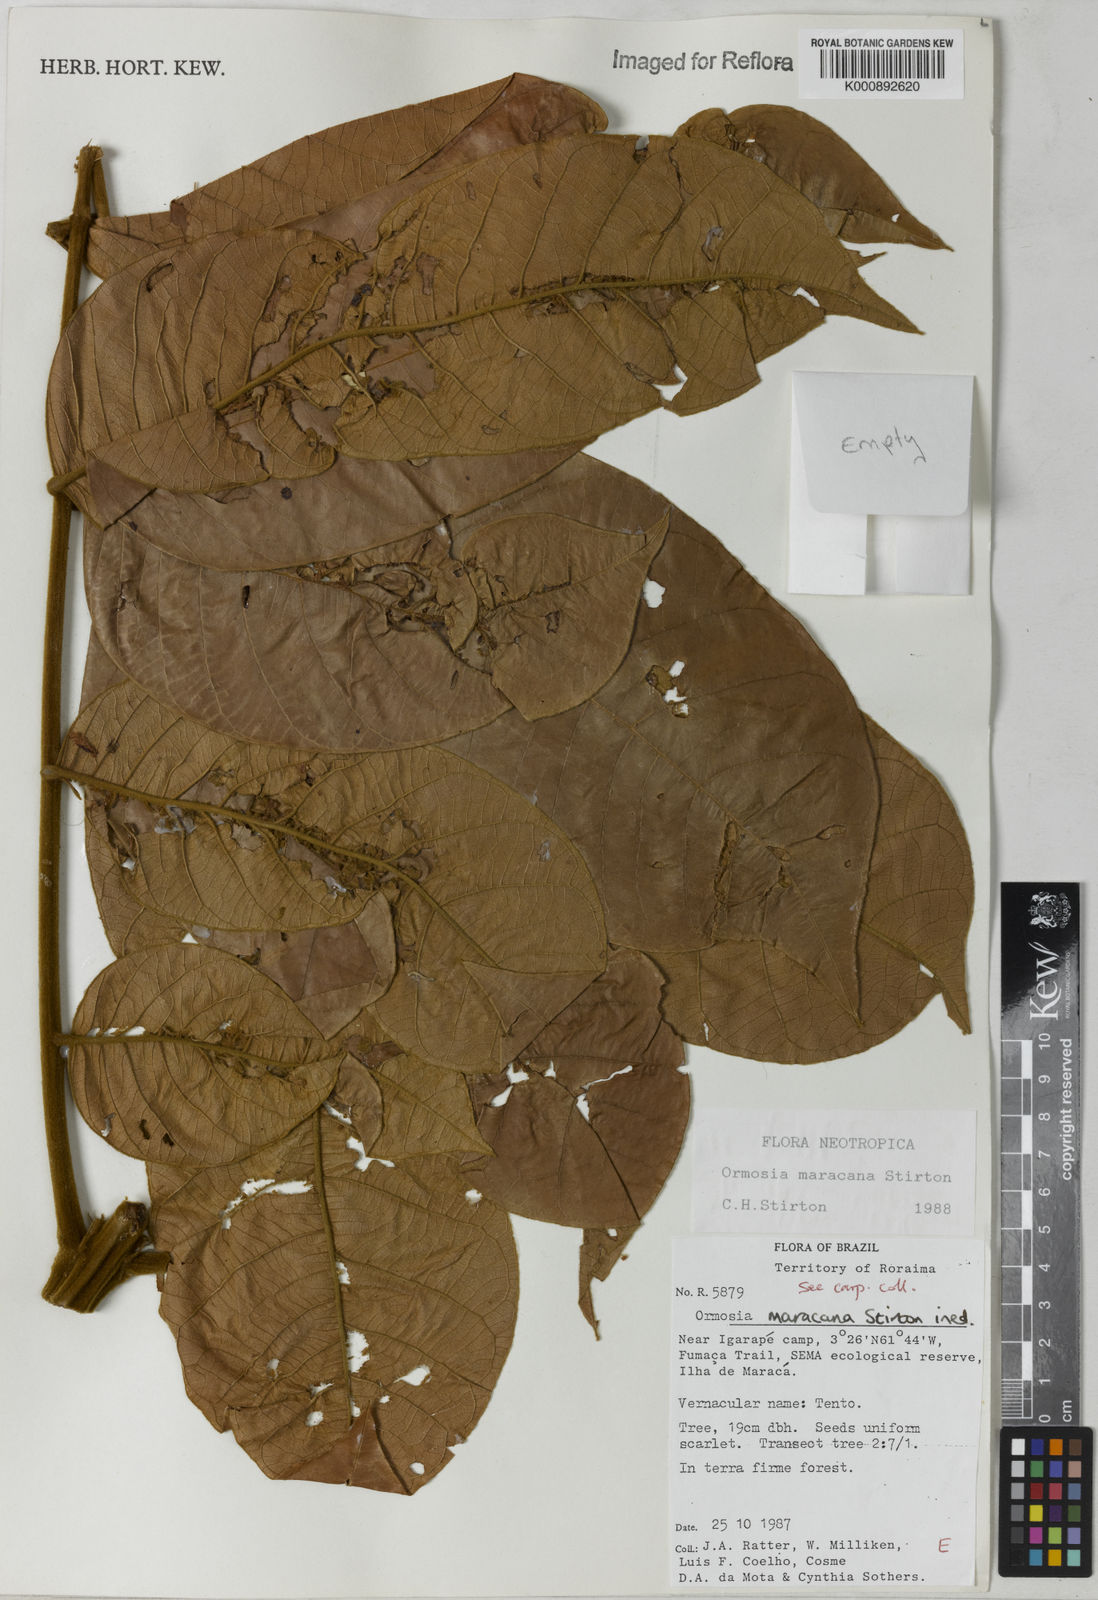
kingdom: Plantae
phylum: Tracheophyta
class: Magnoliopsida
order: Fabales
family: Fabaceae
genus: Ormosia
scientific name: Ormosia
